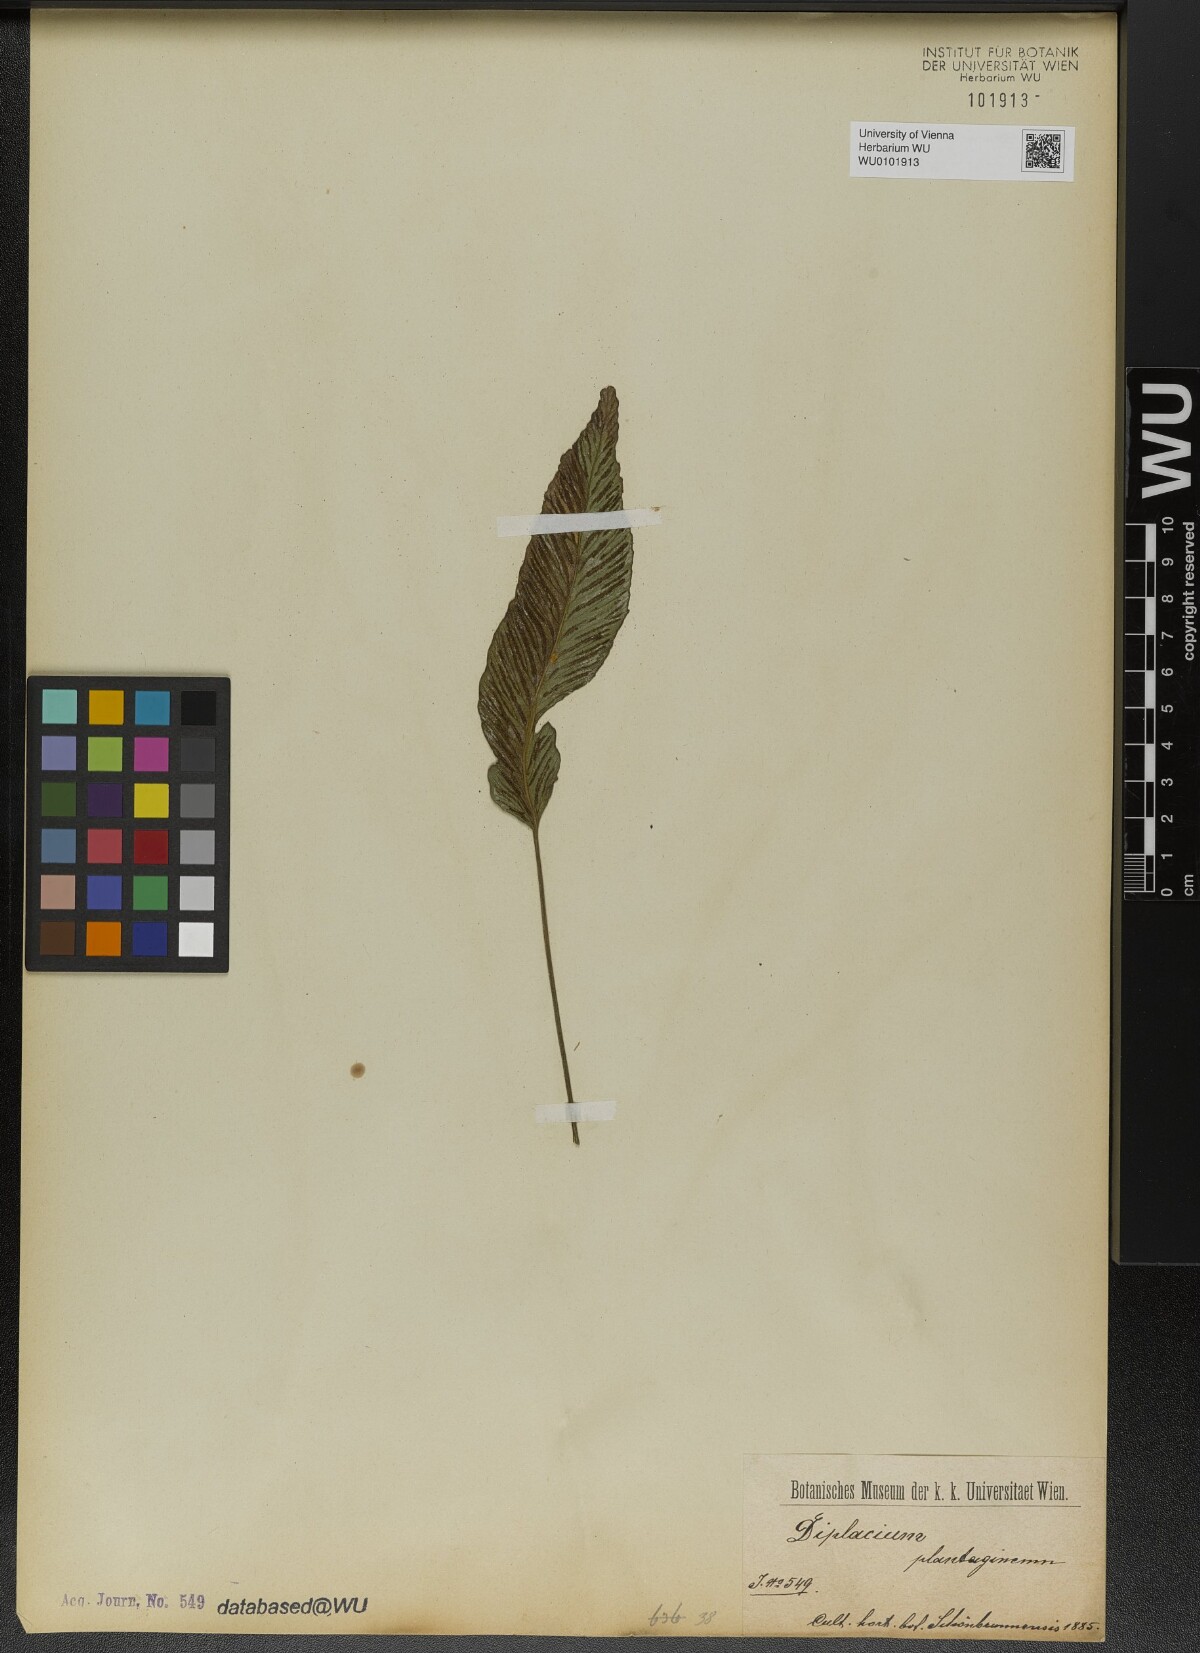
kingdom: Plantae
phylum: Tracheophyta
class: Polypodiopsida
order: Polypodiales
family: Athyriaceae
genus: Diplazium
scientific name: Diplazium plantaginifolium
